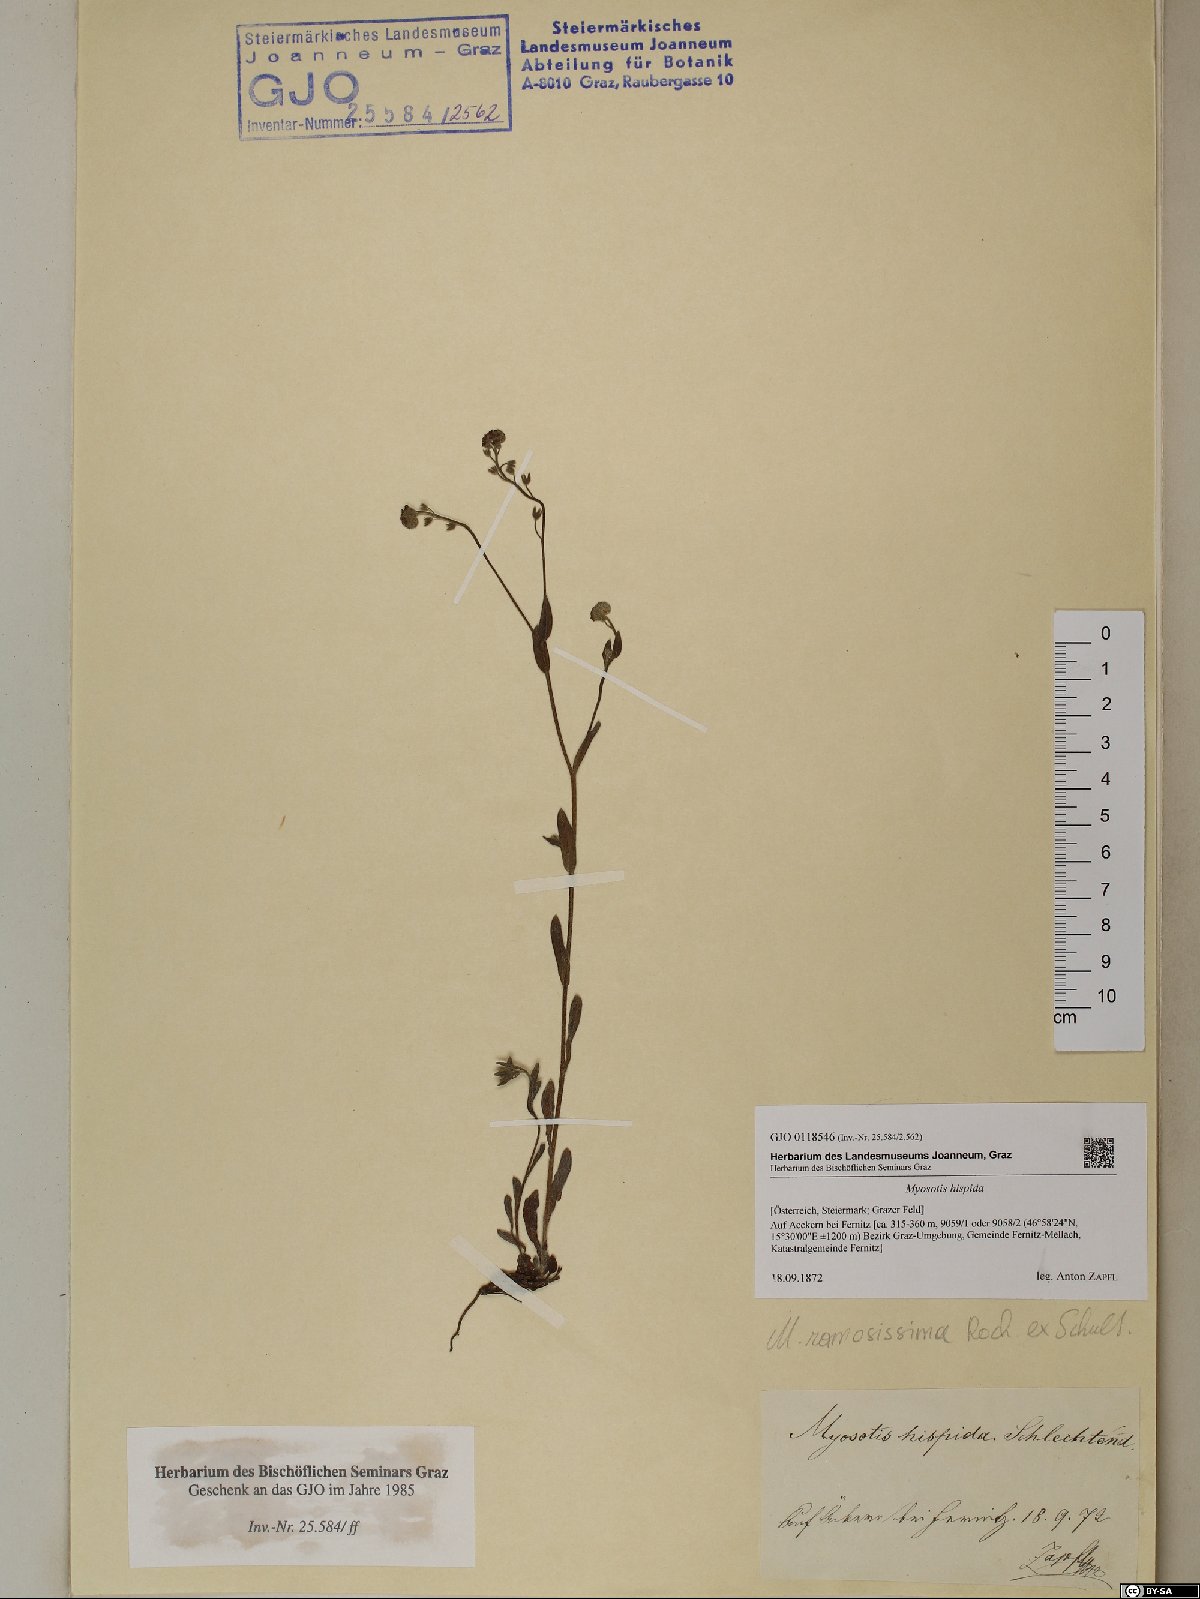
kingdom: Plantae
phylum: Tracheophyta
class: Magnoliopsida
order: Boraginales
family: Boraginaceae
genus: Myosotis
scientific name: Myosotis ramosissima
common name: Early forget-me-not
